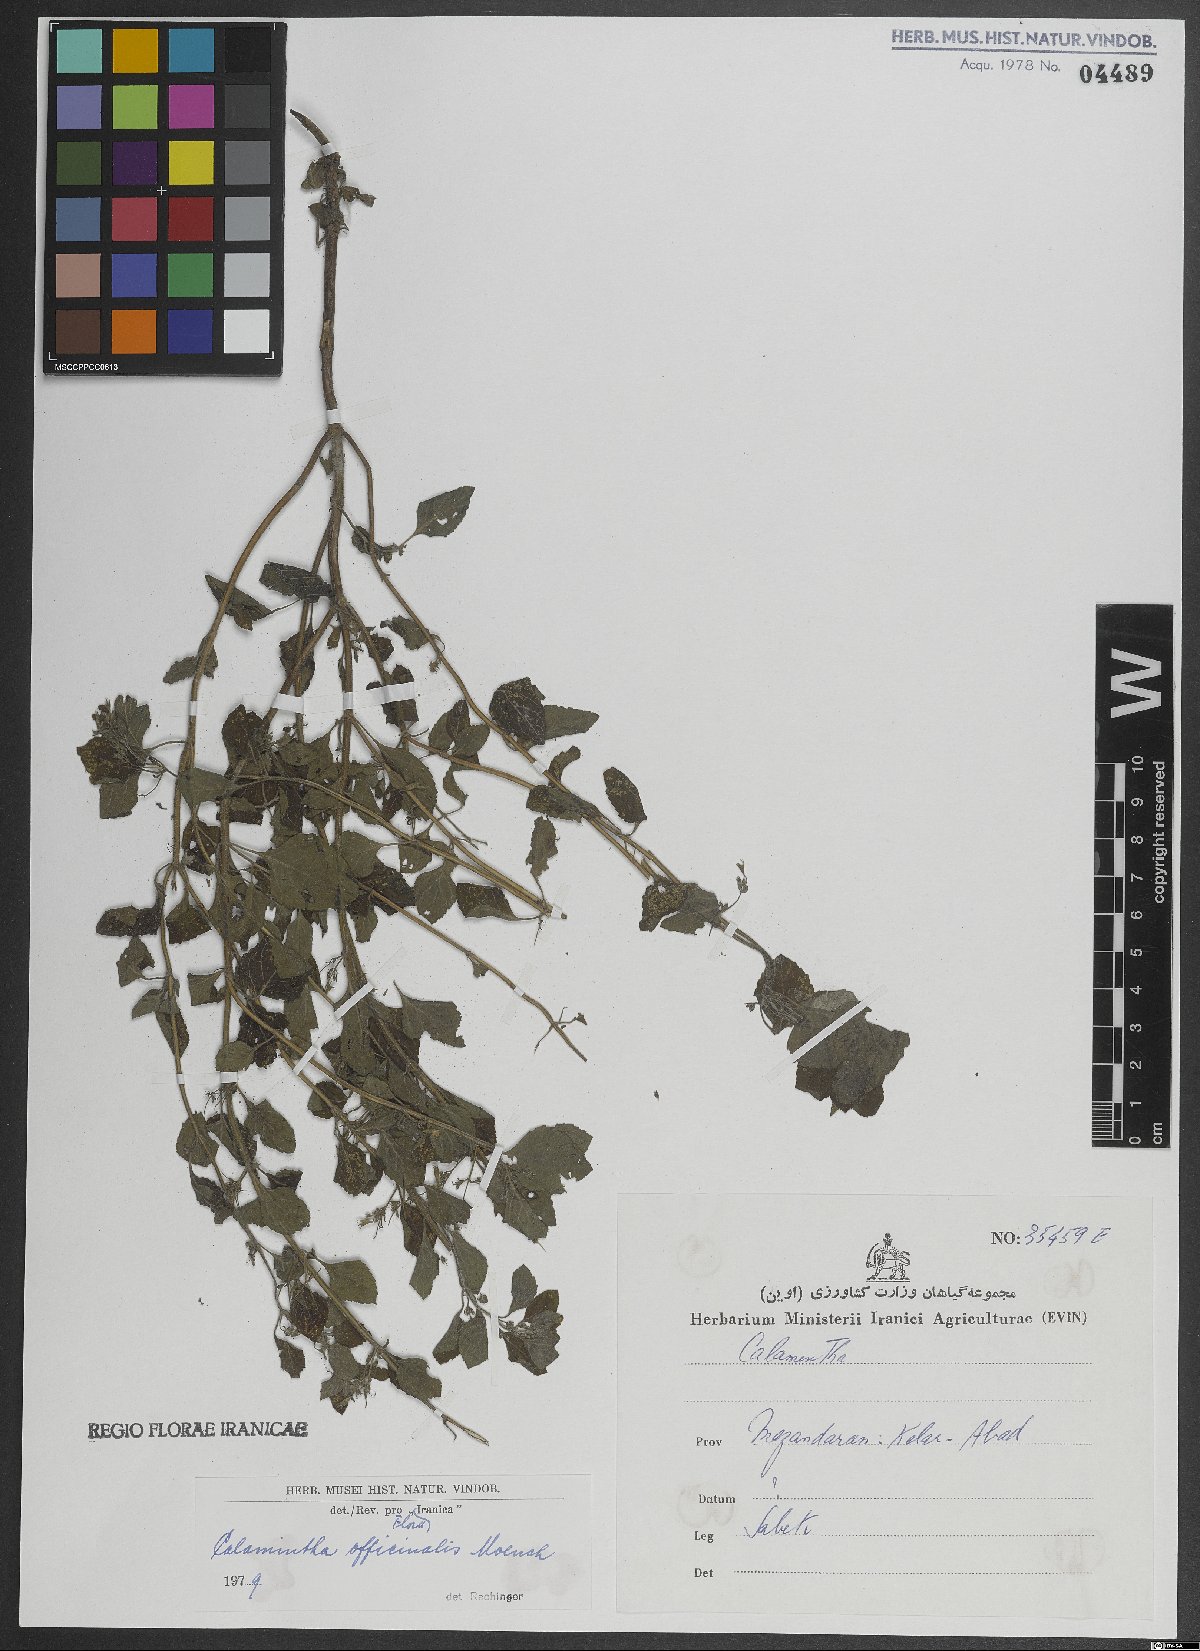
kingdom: Plantae
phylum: Tracheophyta
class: Magnoliopsida
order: Lamiales
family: Lamiaceae
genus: Clinopodium
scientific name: Clinopodium nepeta
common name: Lesser calamint
